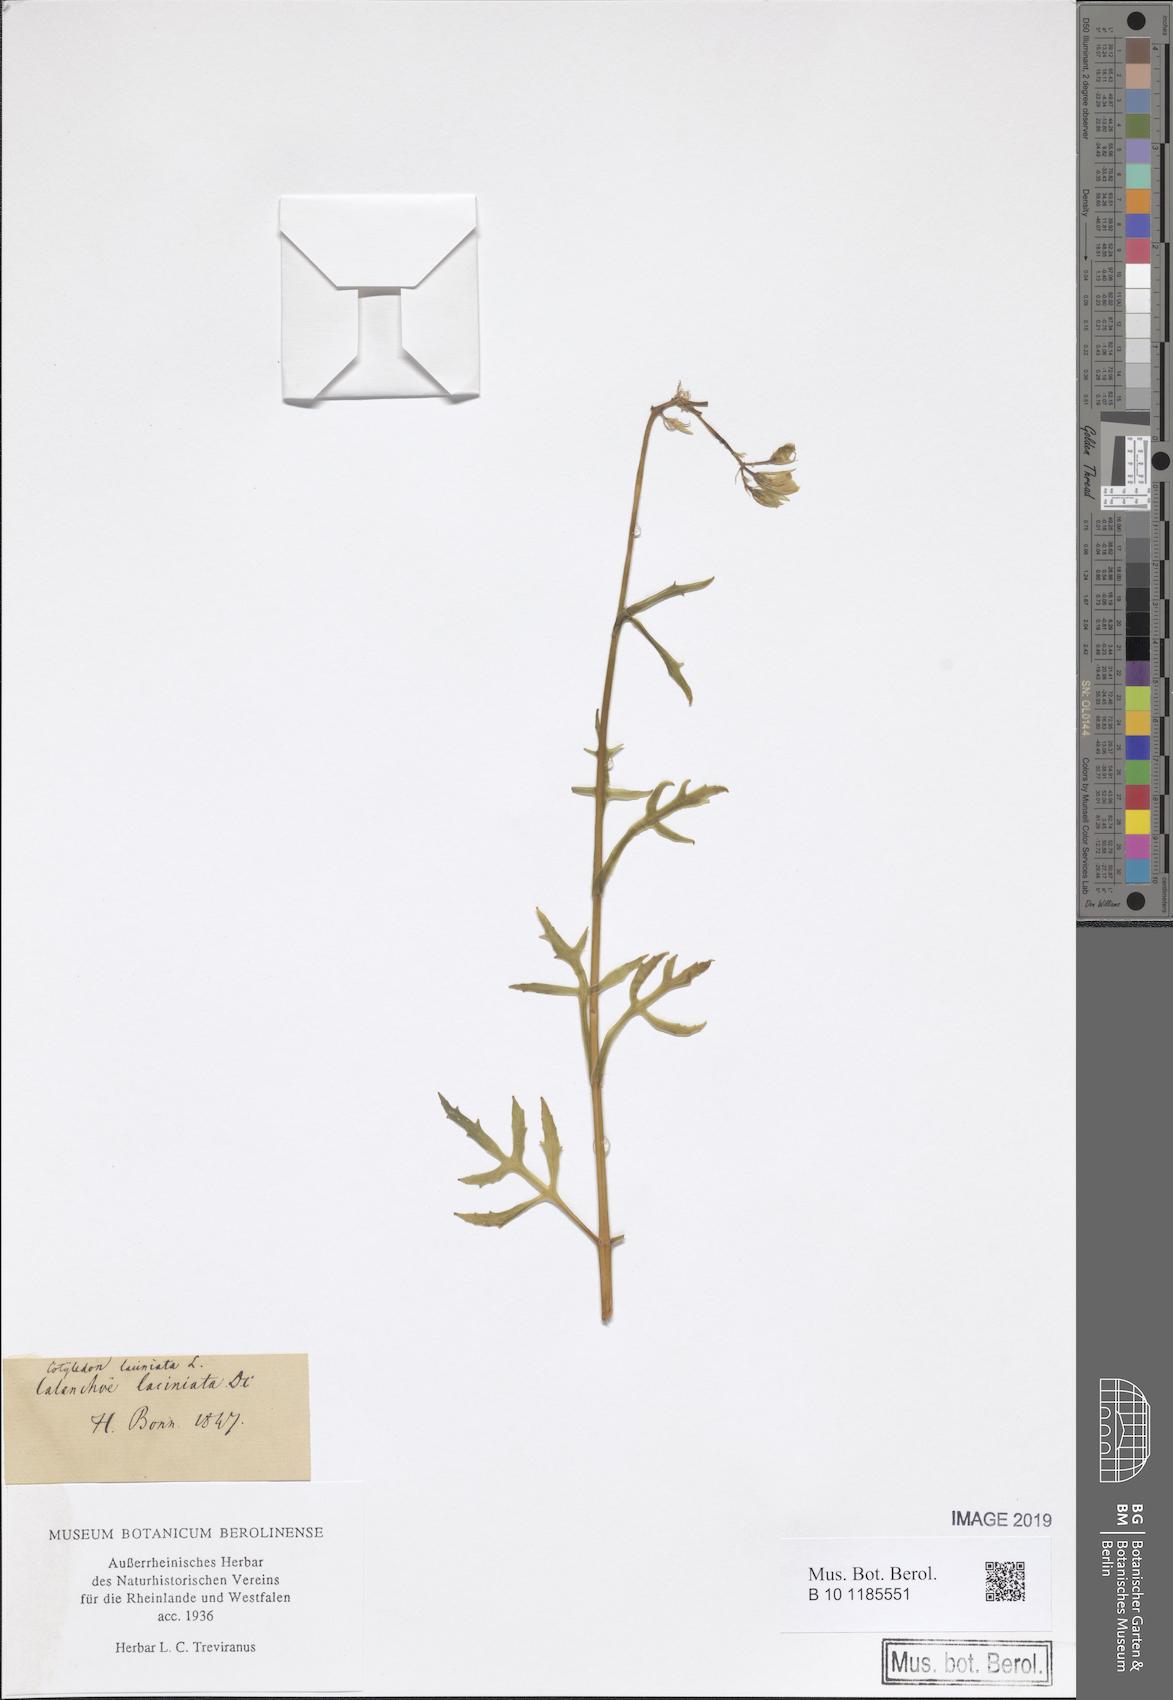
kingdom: Plantae
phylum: Tracheophyta
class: Magnoliopsida
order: Saxifragales
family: Crassulaceae
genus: Kalanchoe
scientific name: Kalanchoe laciniata
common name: Christmastree plant
